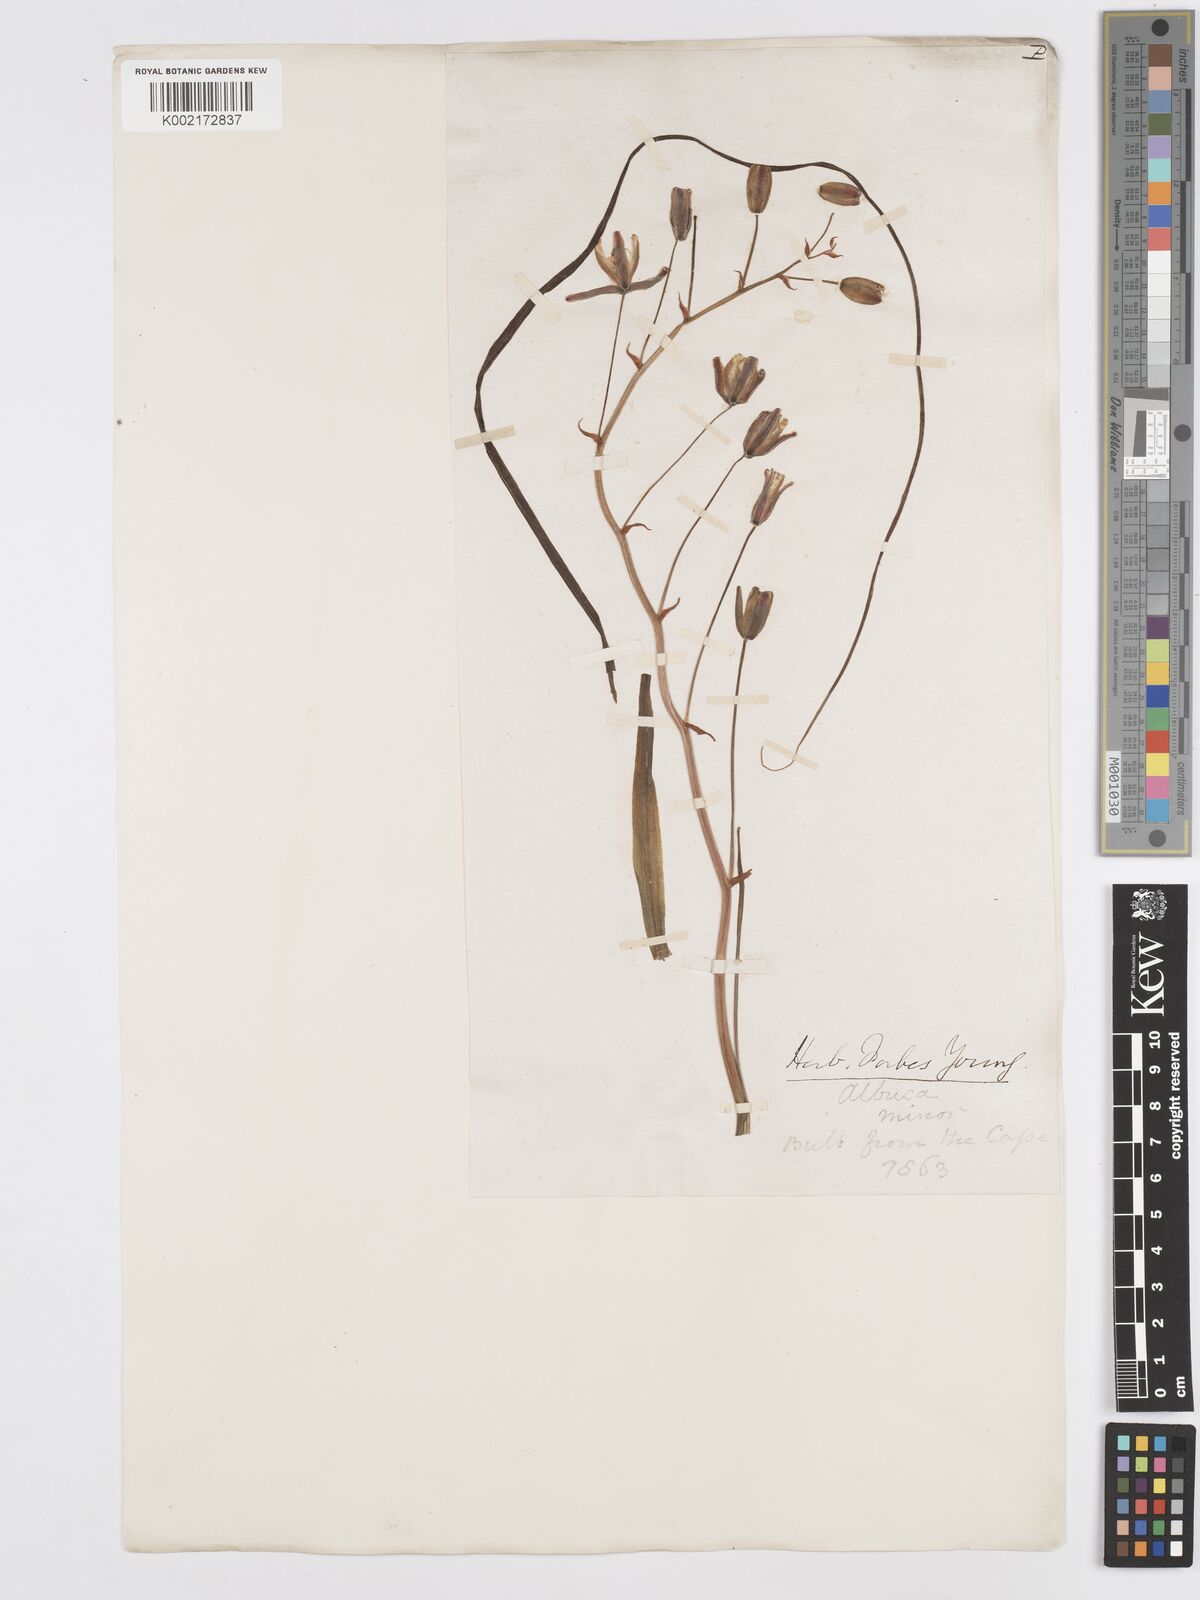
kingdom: Plantae
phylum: Tracheophyta
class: Liliopsida
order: Asparagales
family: Asparagaceae
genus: Albuca
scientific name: Albuca canadensis
